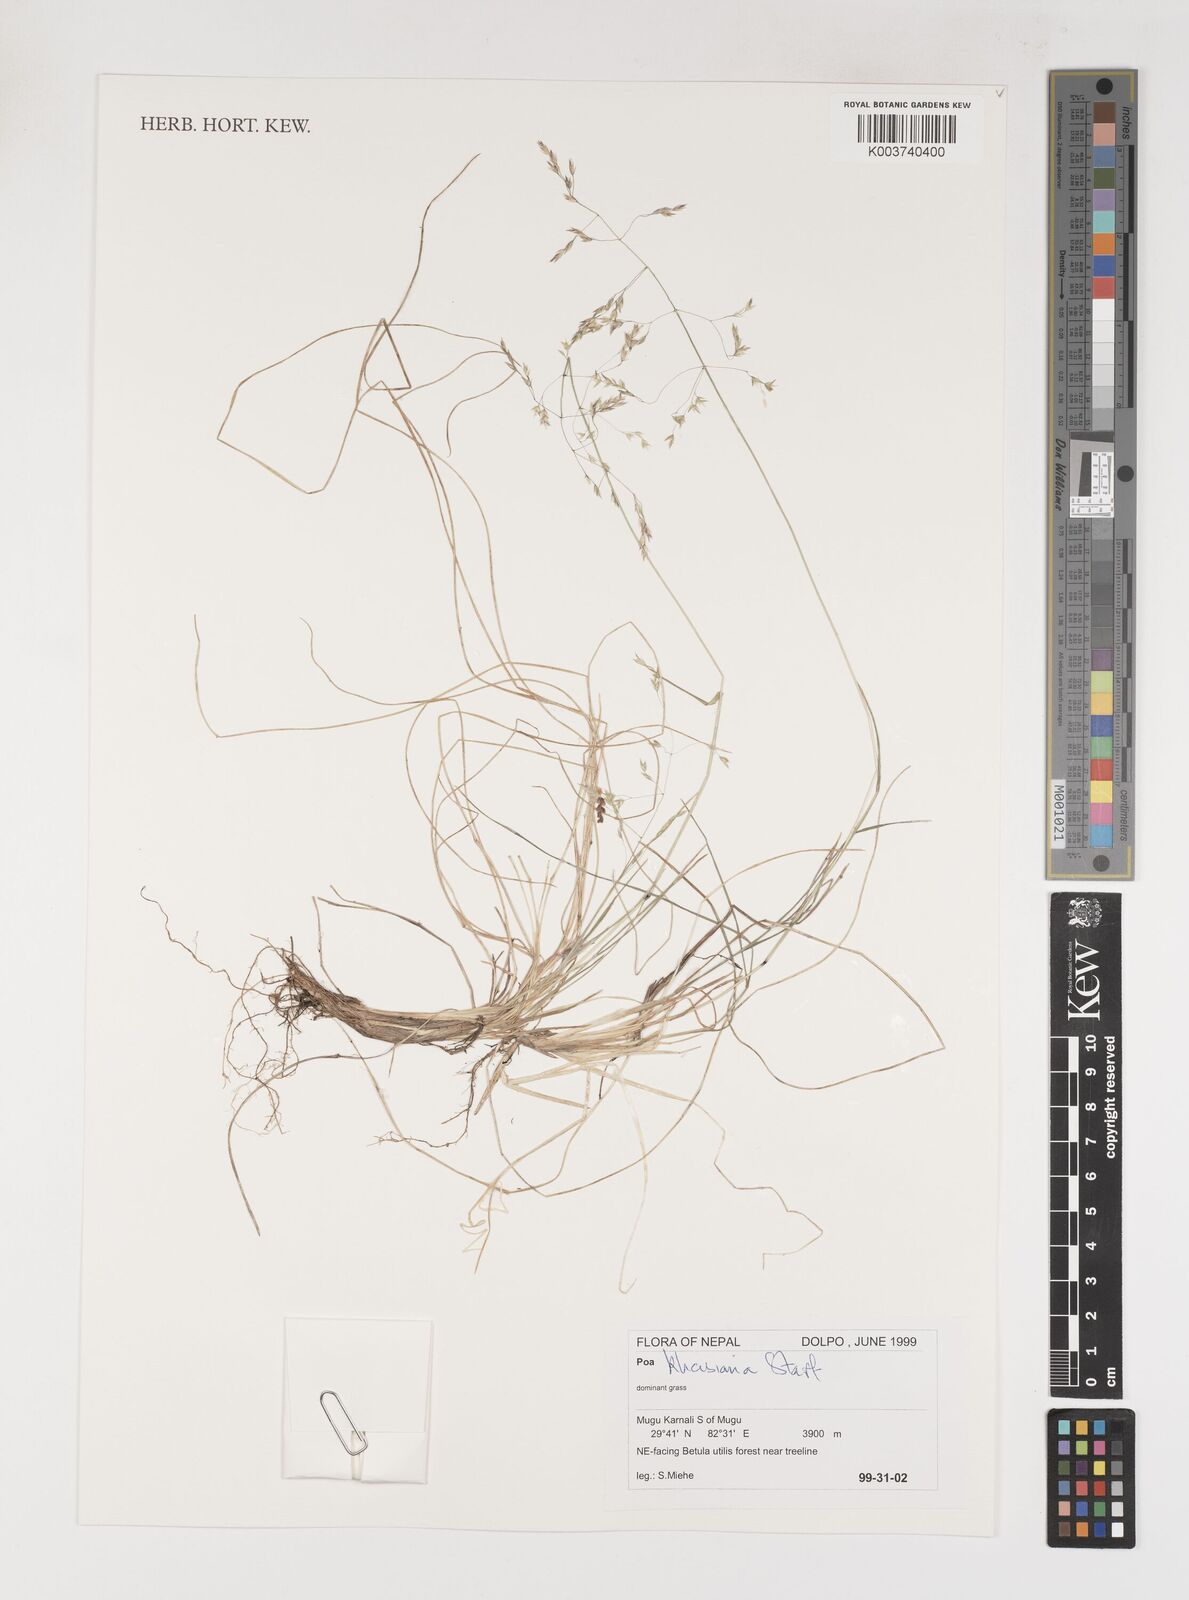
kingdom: Plantae
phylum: Tracheophyta
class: Liliopsida
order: Poales
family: Poaceae
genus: Poa
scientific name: Poa khasiana
